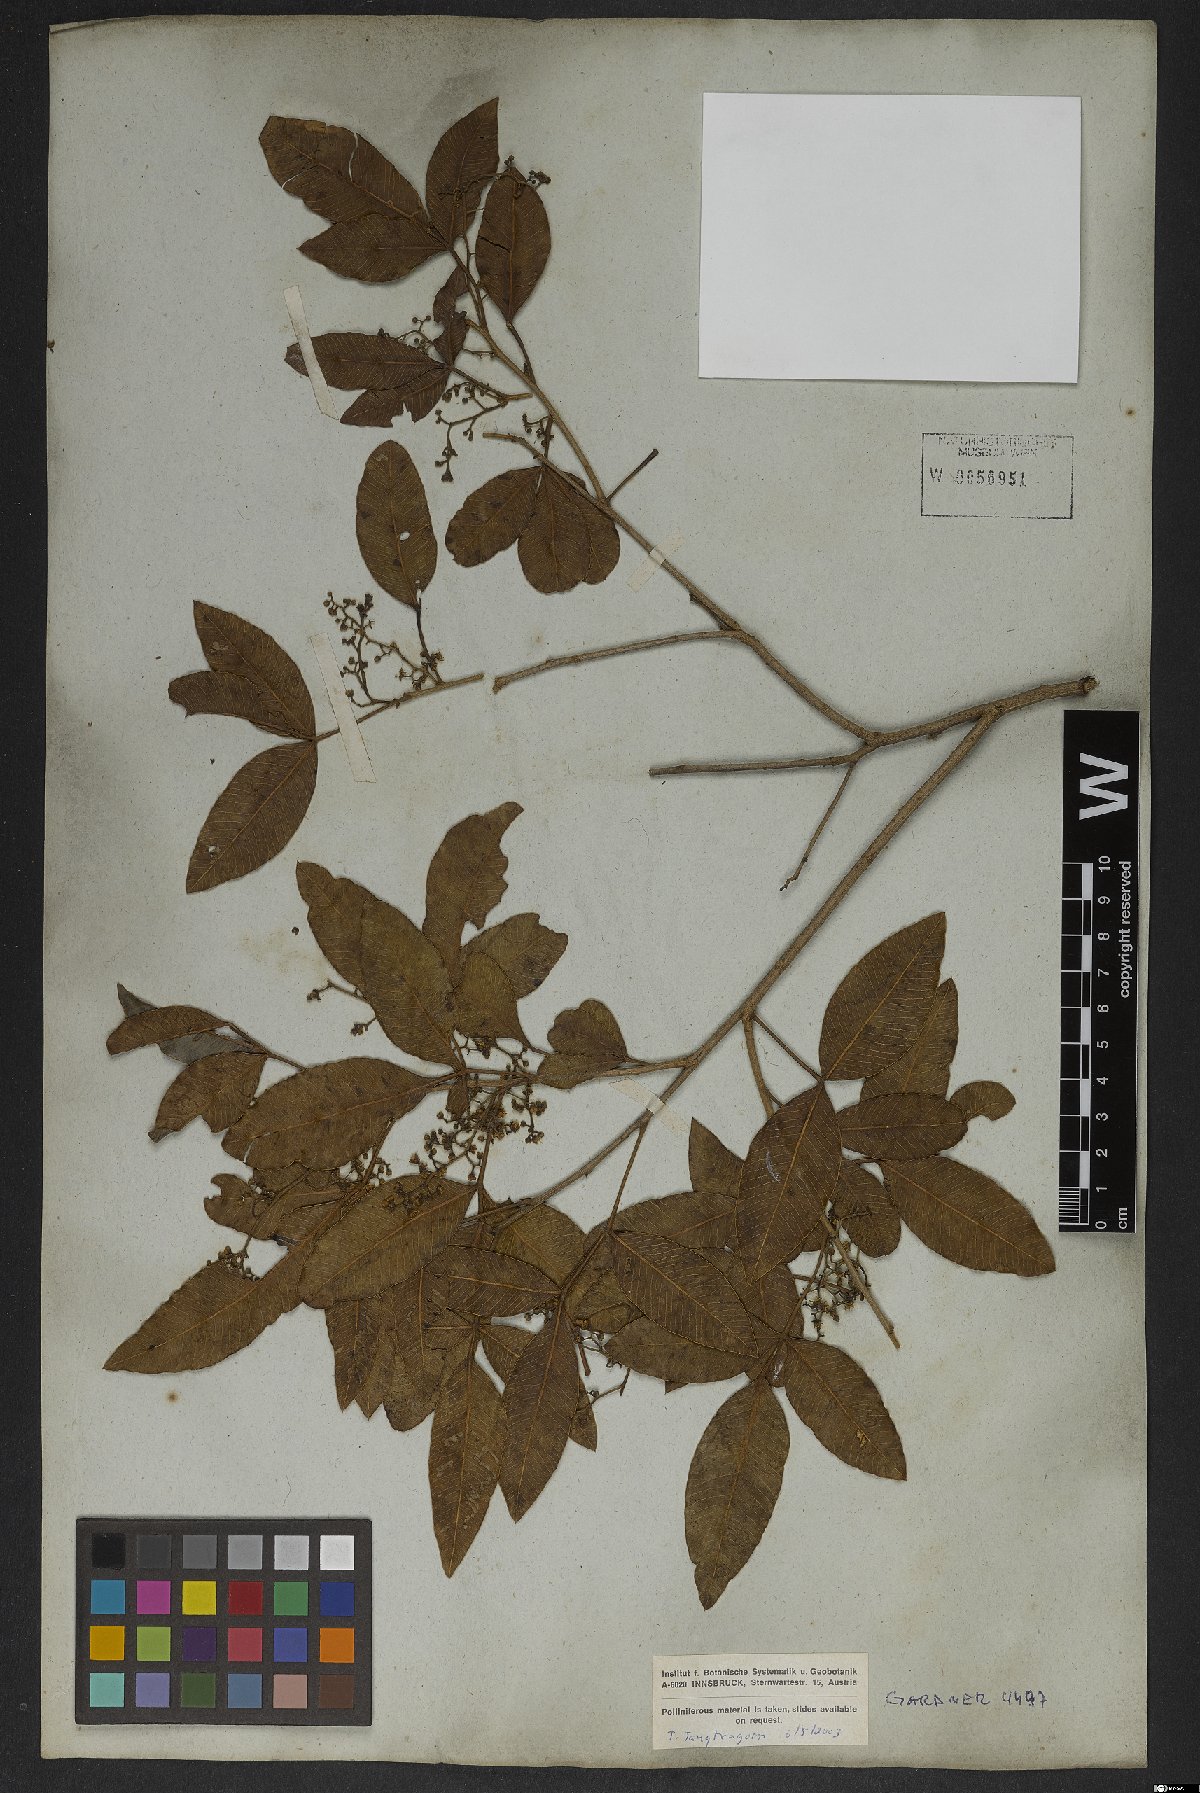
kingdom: Plantae
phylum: Tracheophyta
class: Magnoliopsida
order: Sapindales
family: Anacardiaceae
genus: Lithraea
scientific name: Lithraea brasiliensis
